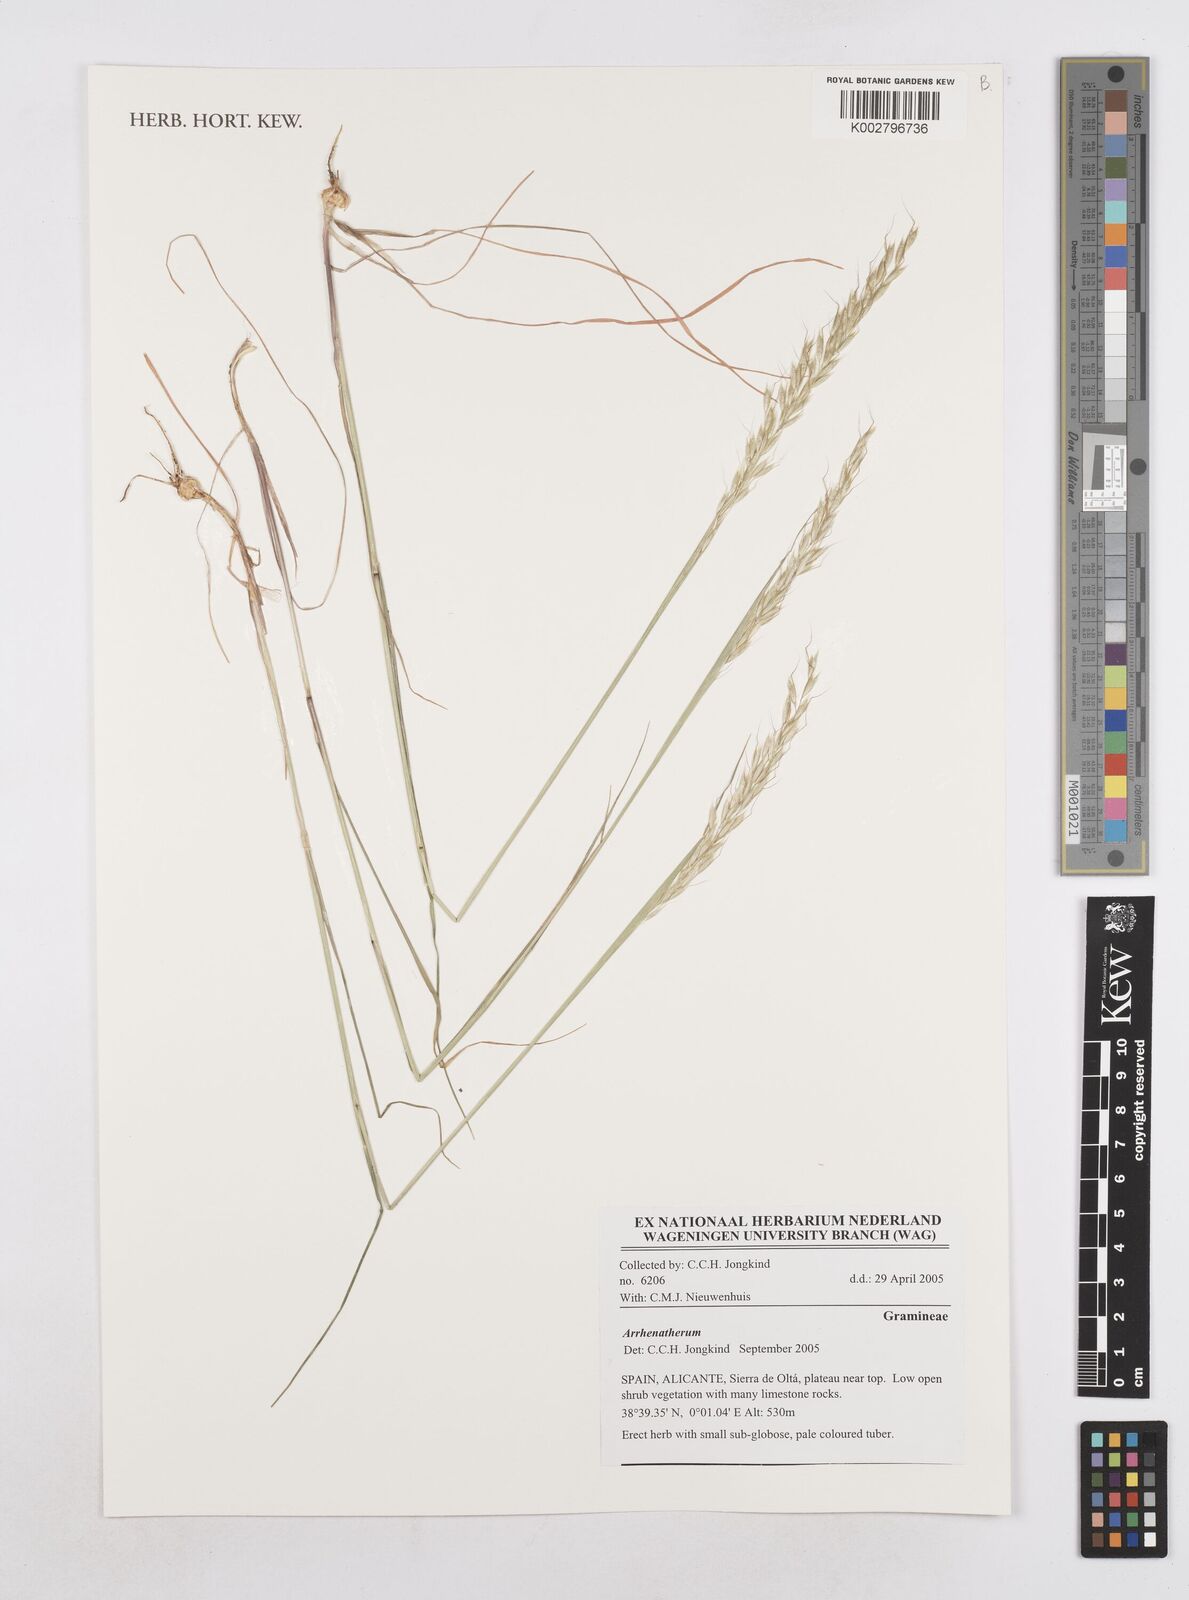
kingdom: Plantae
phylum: Tracheophyta
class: Liliopsida
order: Poales
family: Poaceae
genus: Arrhenatherum
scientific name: Arrhenatherum
